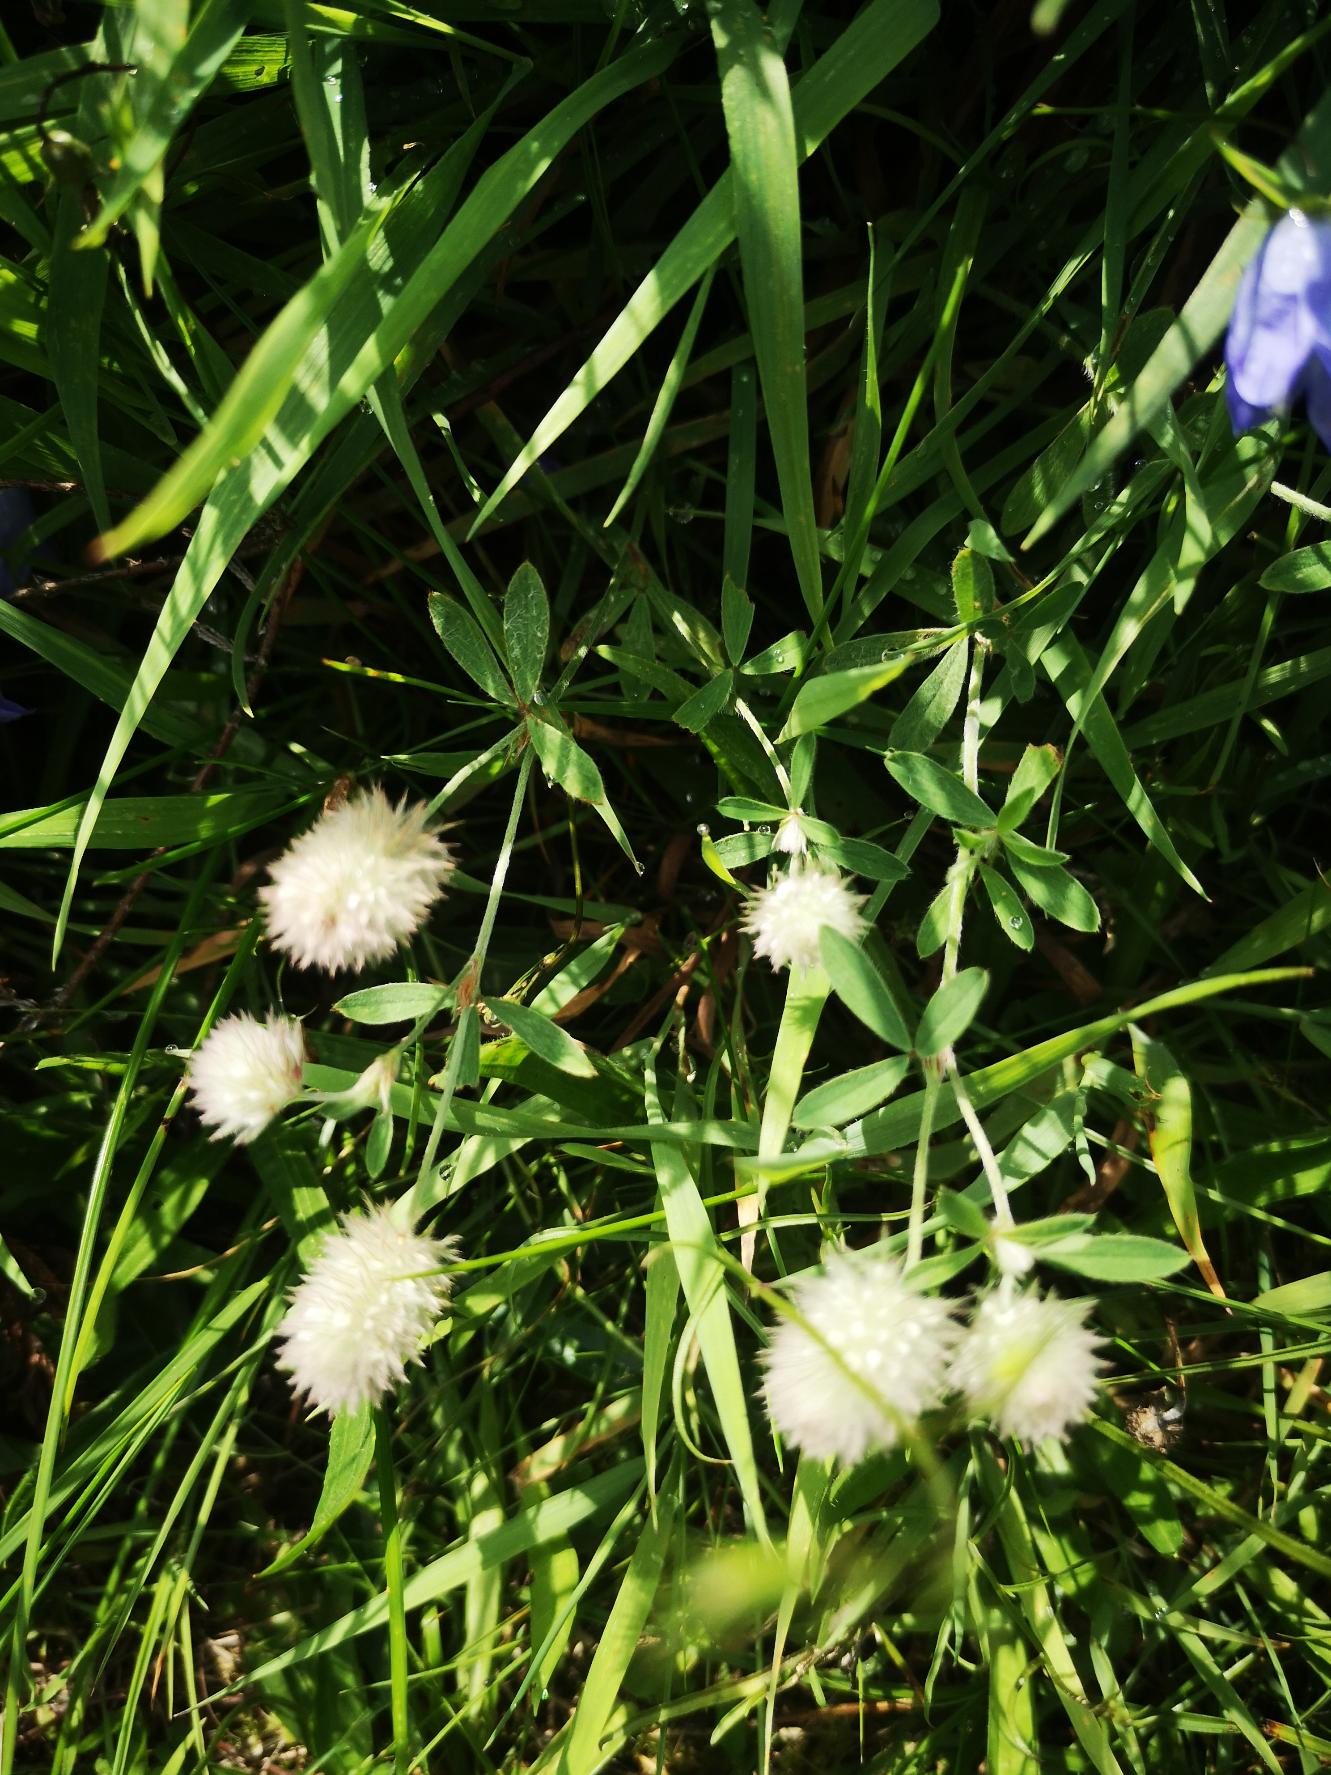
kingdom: Plantae
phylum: Tracheophyta
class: Magnoliopsida
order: Fabales
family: Fabaceae
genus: Trifolium
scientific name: Trifolium arvense
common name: Hare-kløver
